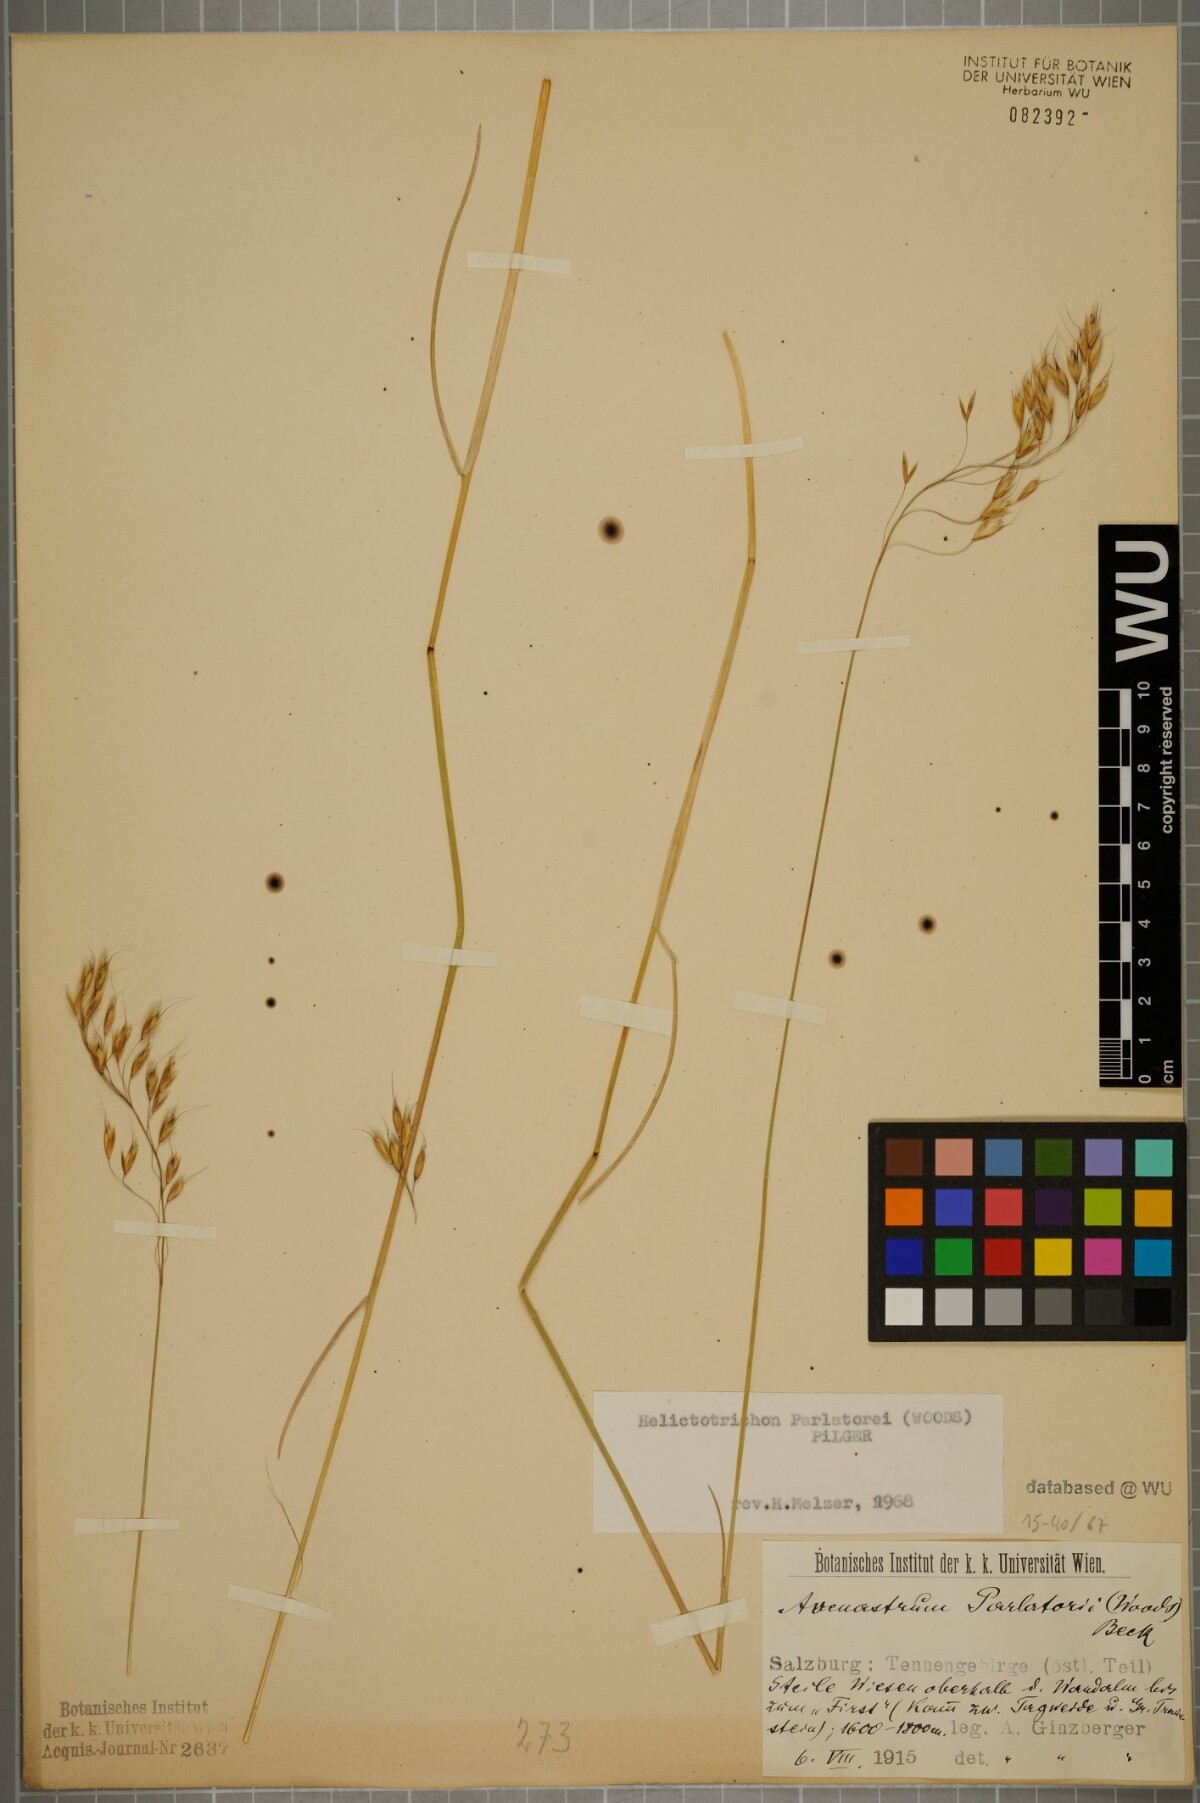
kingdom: Plantae
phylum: Tracheophyta
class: Liliopsida
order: Poales
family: Poaceae
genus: Helictotrichon
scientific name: Helictotrichon parlatorei
